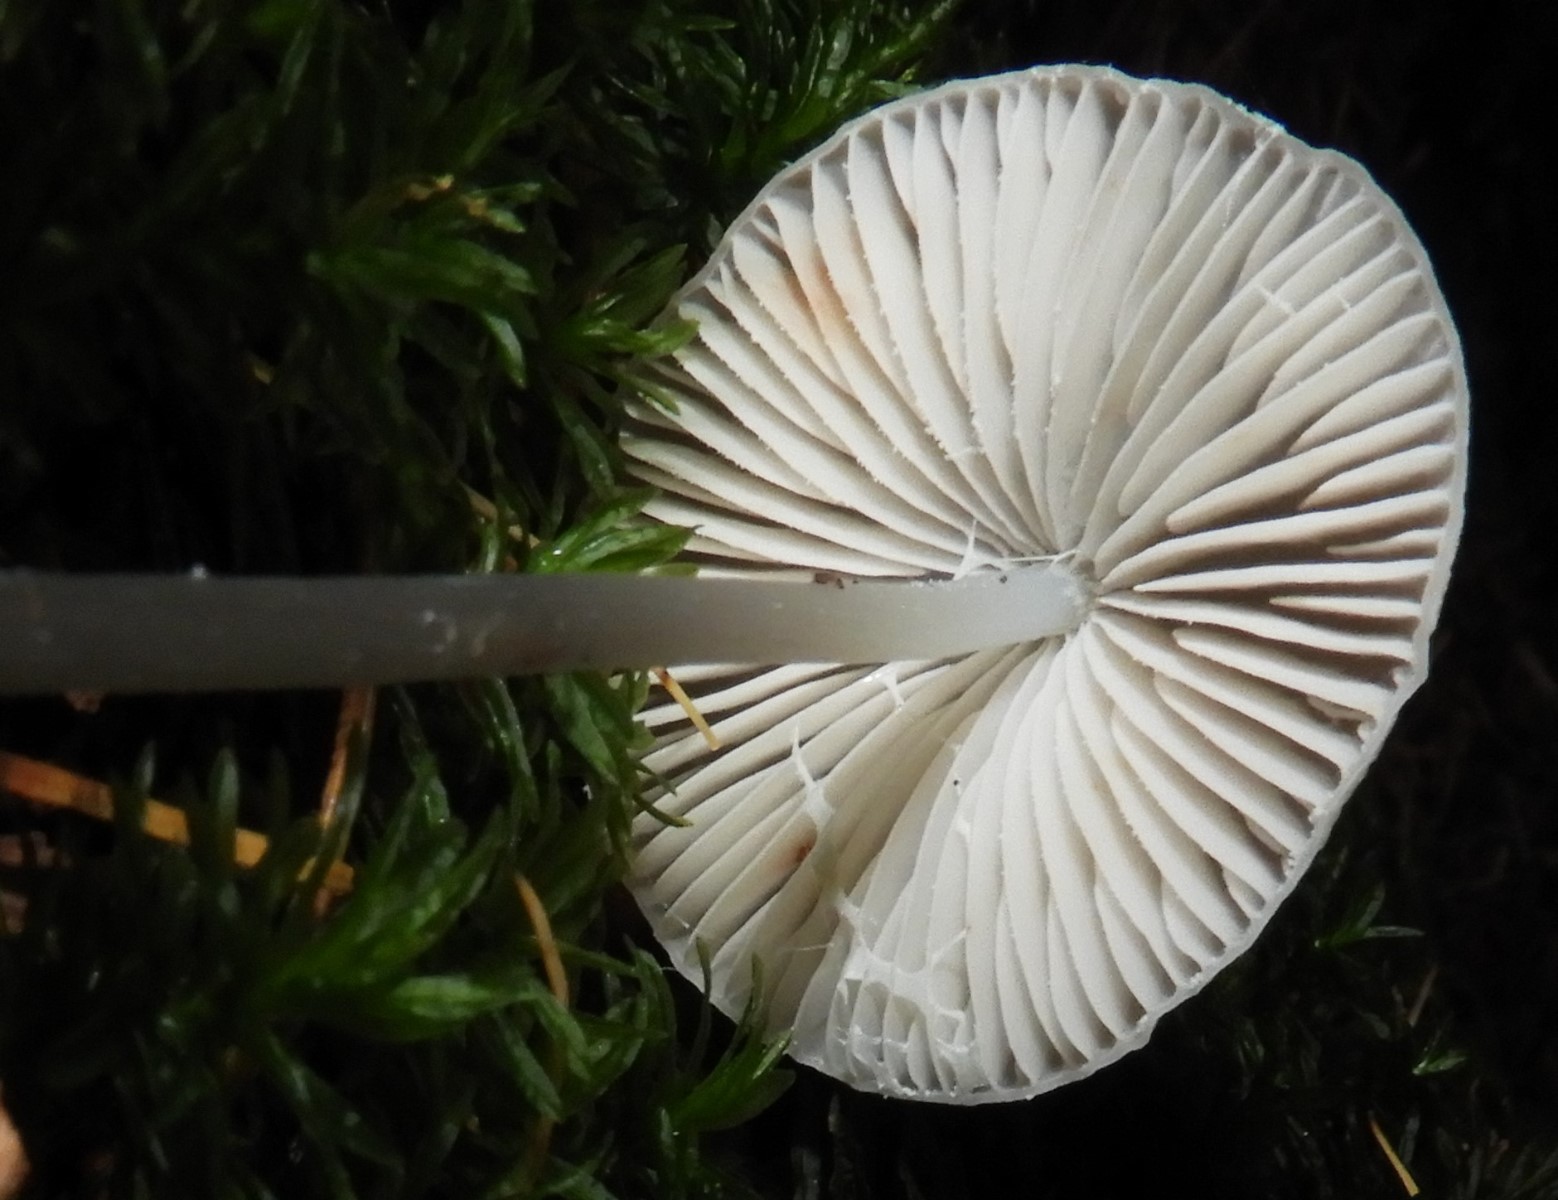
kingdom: Fungi
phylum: Basidiomycota
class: Agaricomycetes
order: Agaricales
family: Mycenaceae
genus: Mycena
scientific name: Mycena vitilis
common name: blankstokket huesvamp
